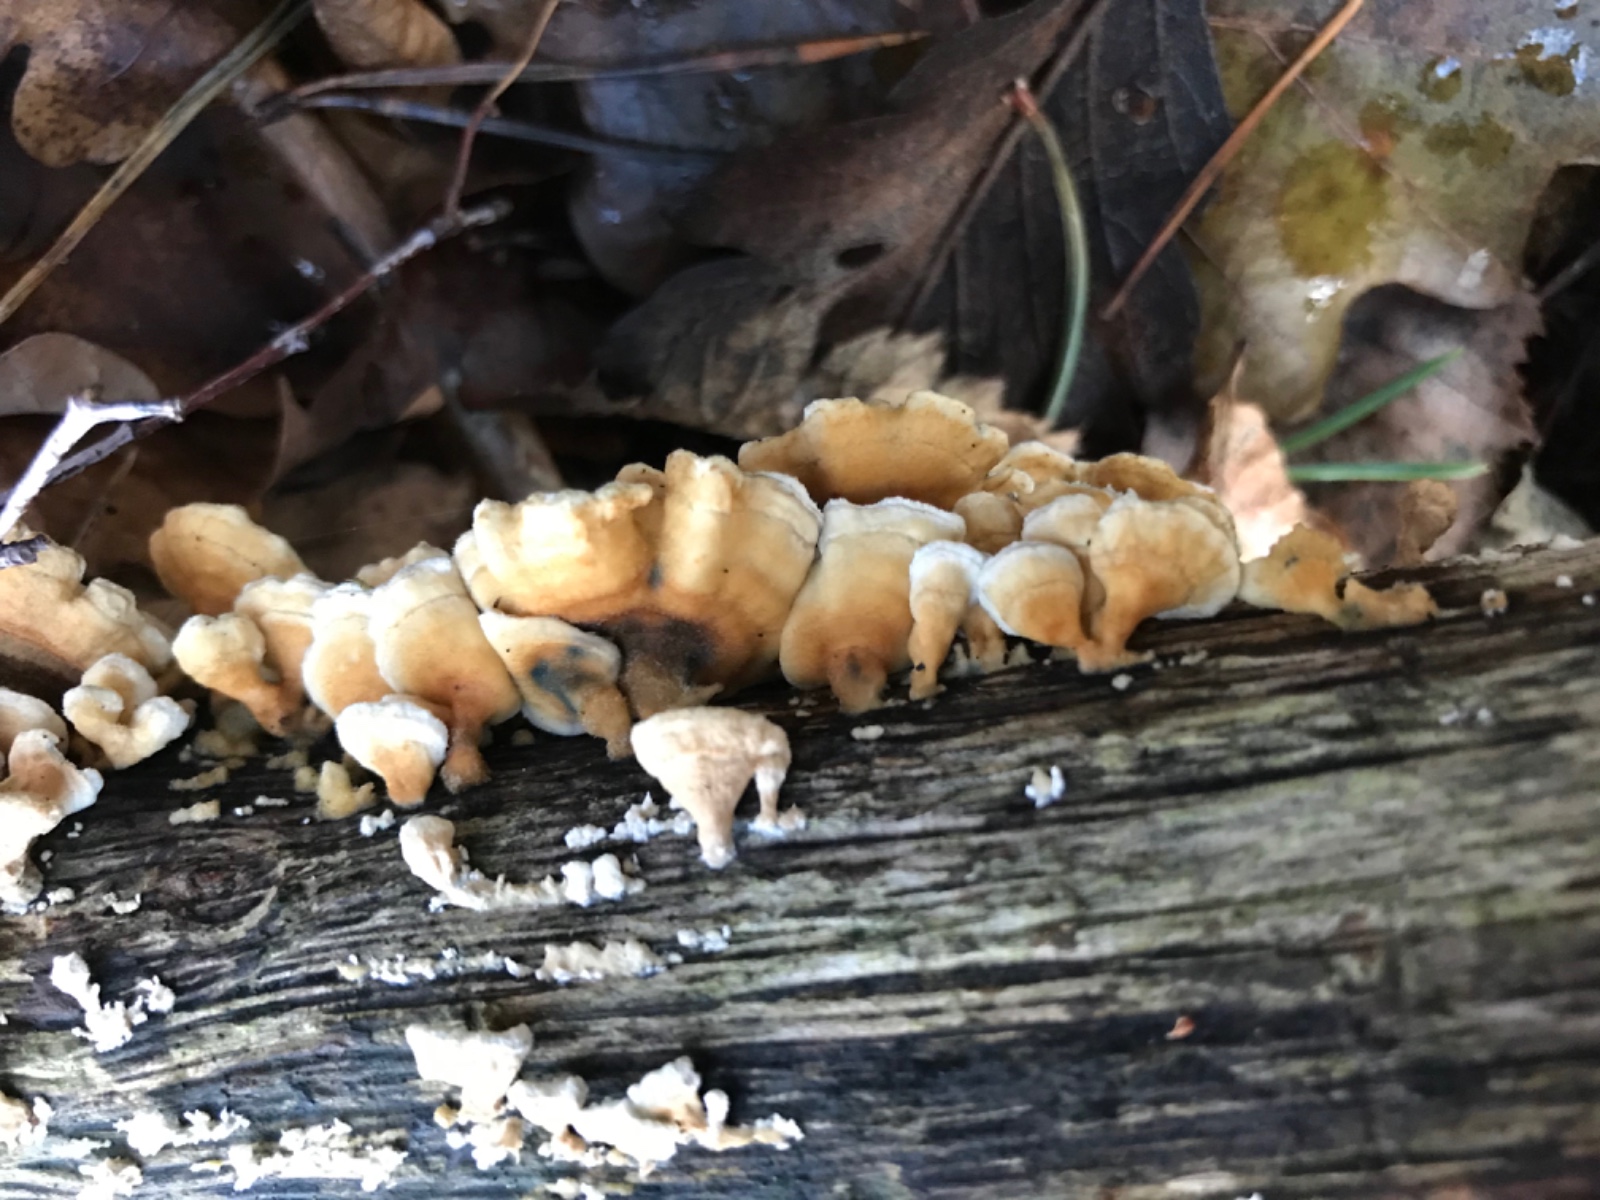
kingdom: Fungi
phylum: Basidiomycota
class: Agaricomycetes
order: Amylocorticiales
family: Amylocorticiaceae
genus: Plicaturopsis
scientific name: Plicaturopsis crispa
